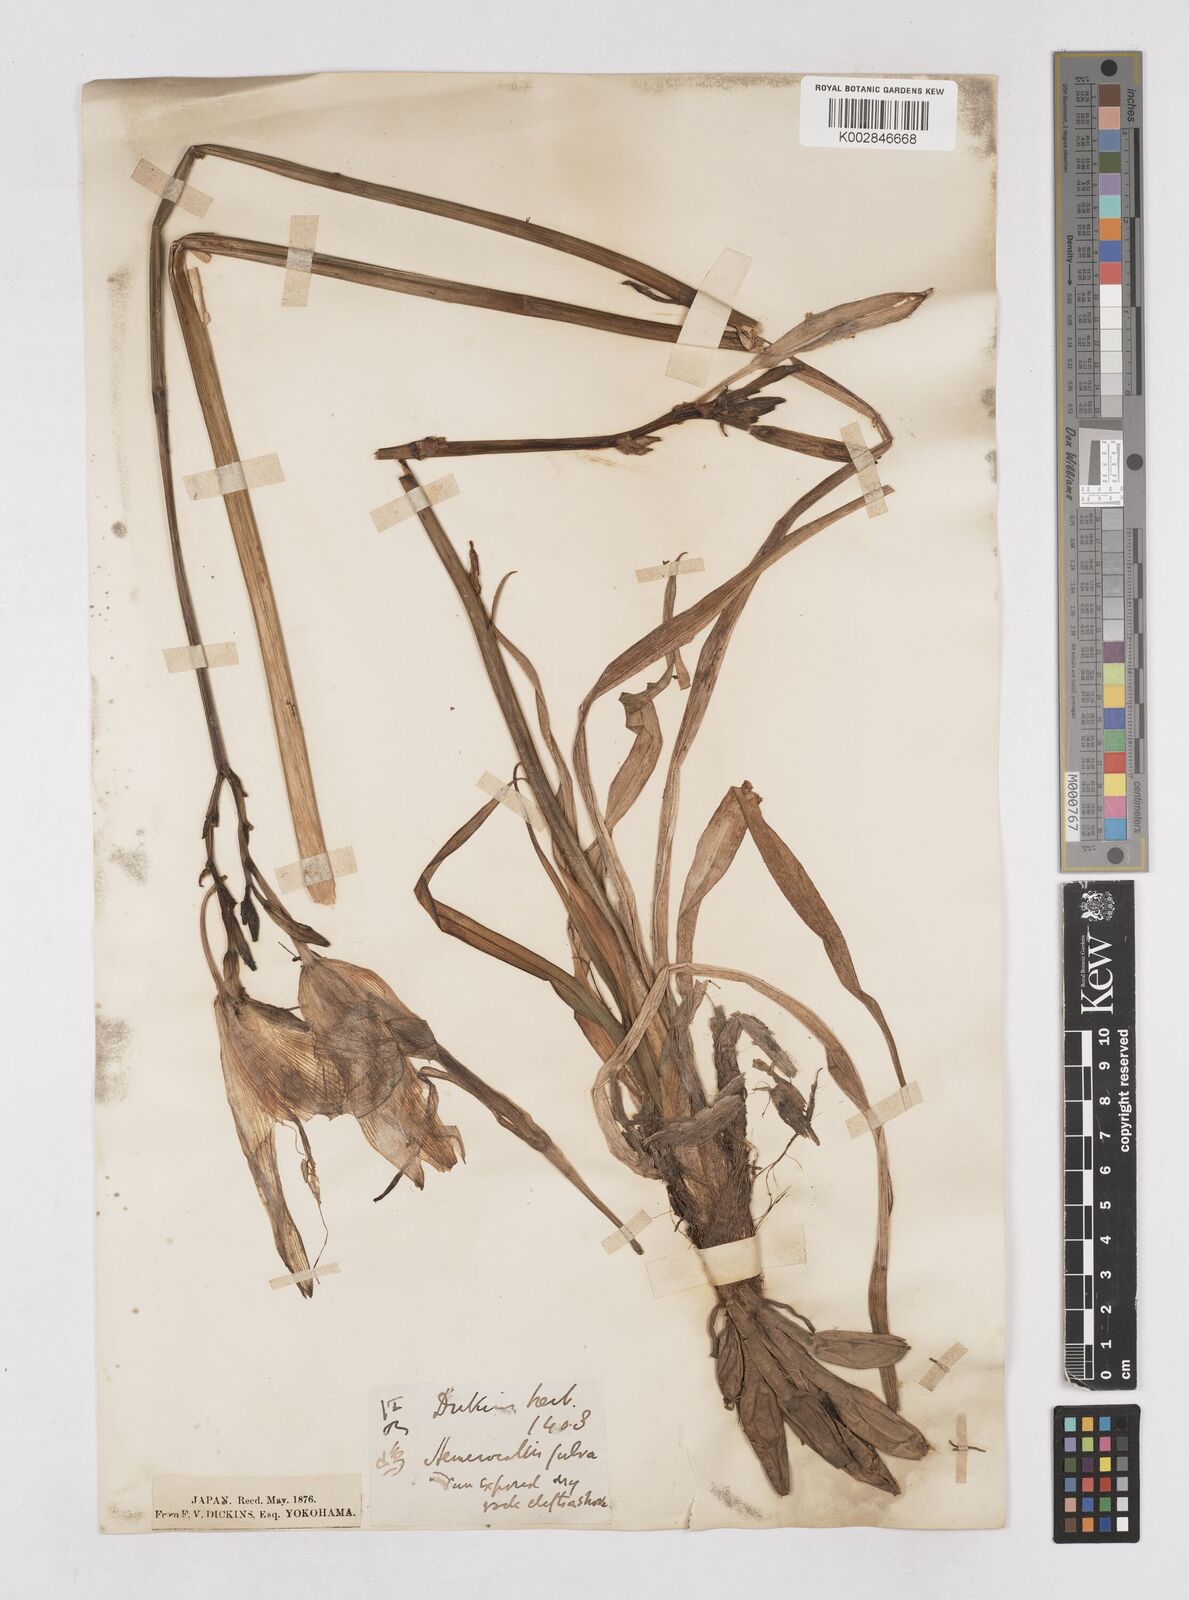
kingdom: Plantae
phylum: Tracheophyta
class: Liliopsida
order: Asparagales
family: Asphodelaceae
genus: Hemerocallis
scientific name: Hemerocallis fulva
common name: Orange day-lily
